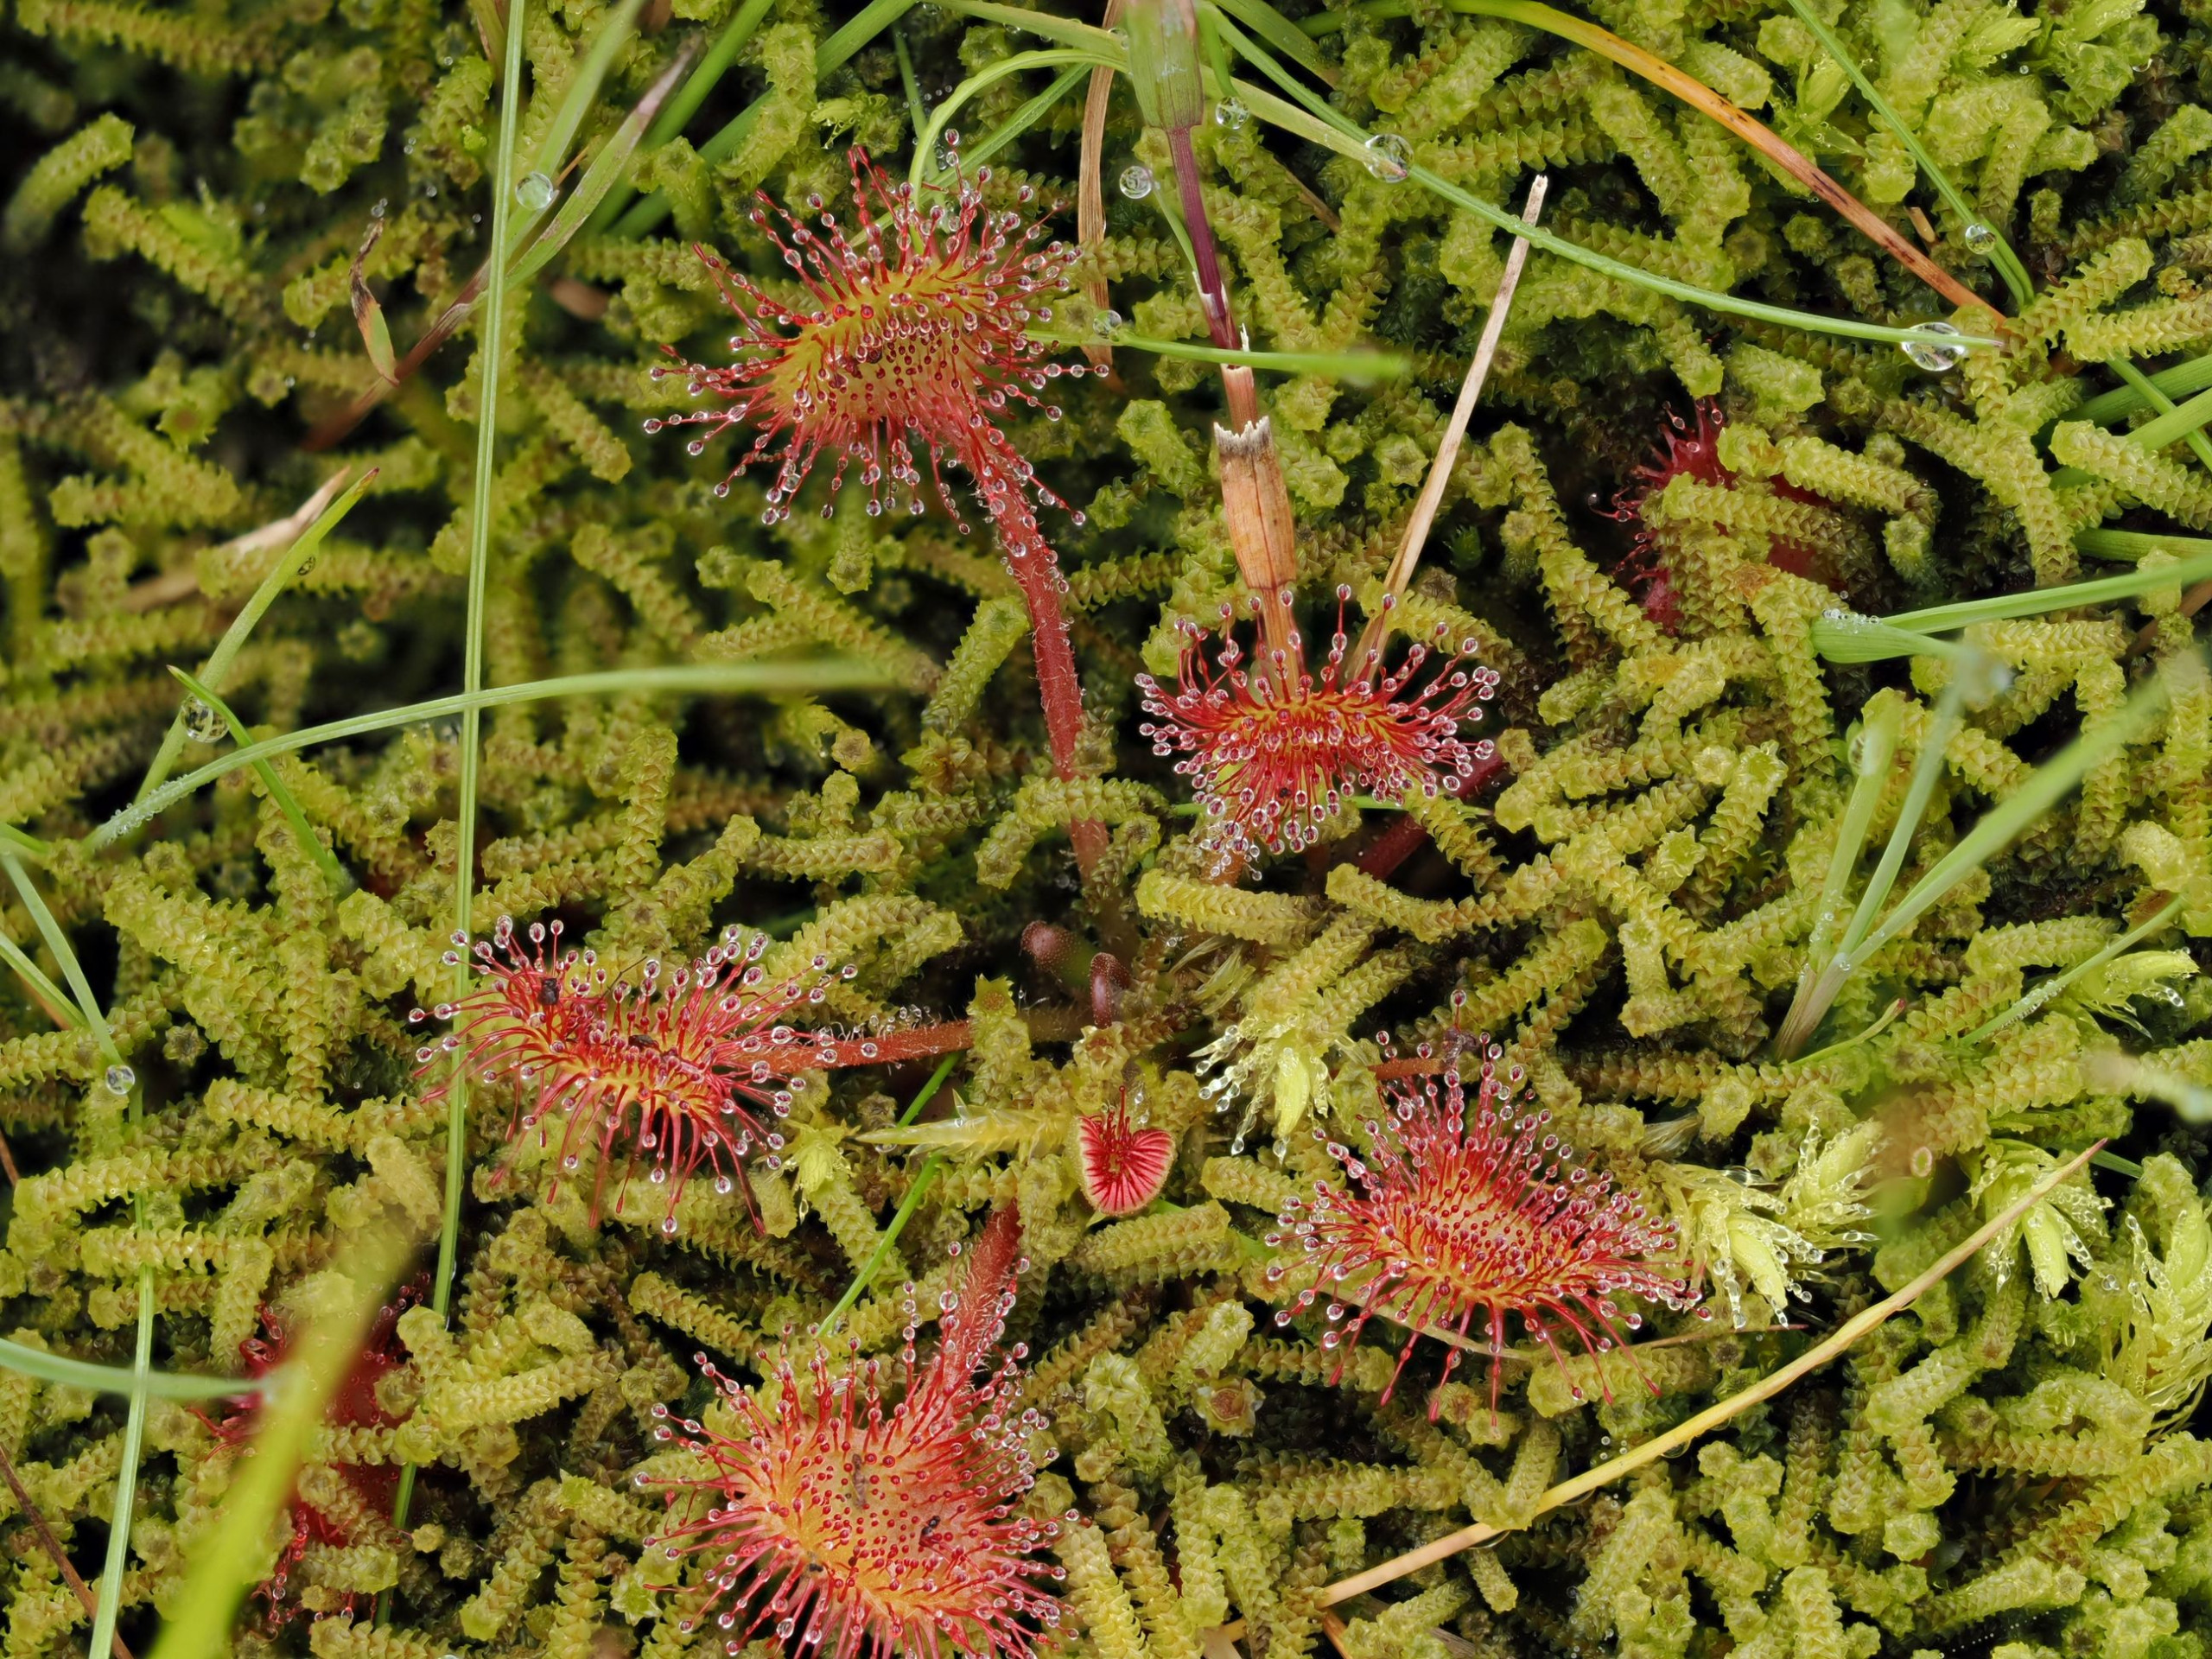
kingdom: Plantae
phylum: Tracheophyta
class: Magnoliopsida
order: Caryophyllales
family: Droseraceae
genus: Drosera
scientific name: Drosera rotundifolia
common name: Rundbladet soldug
